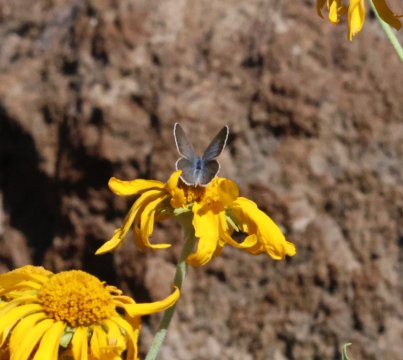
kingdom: Animalia
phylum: Arthropoda
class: Insecta
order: Lepidoptera
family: Lycaenidae
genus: Echinargus
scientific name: Echinargus isola
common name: Reakirt's Blue
